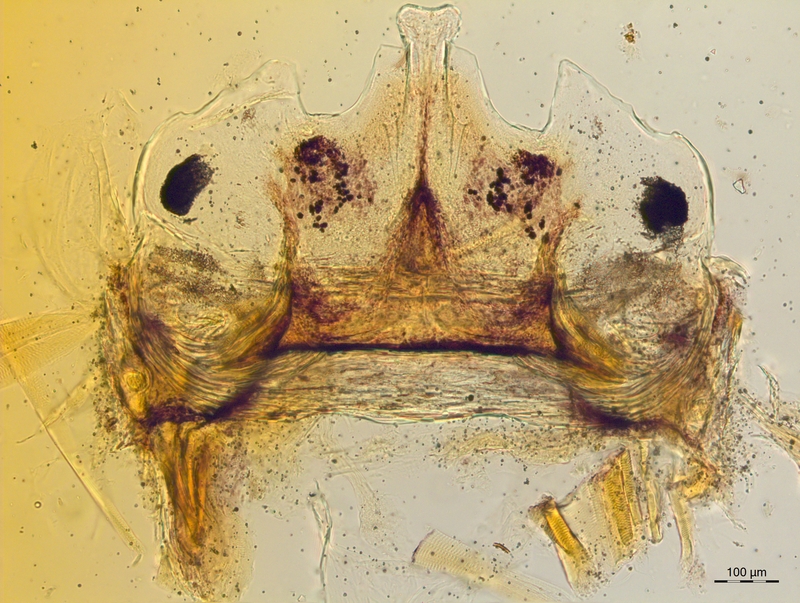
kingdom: Animalia
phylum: Arthropoda
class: Diplopoda
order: Chordeumatida
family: Craspedosomatidae
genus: Craspedosoma
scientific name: Craspedosoma taurinorum
